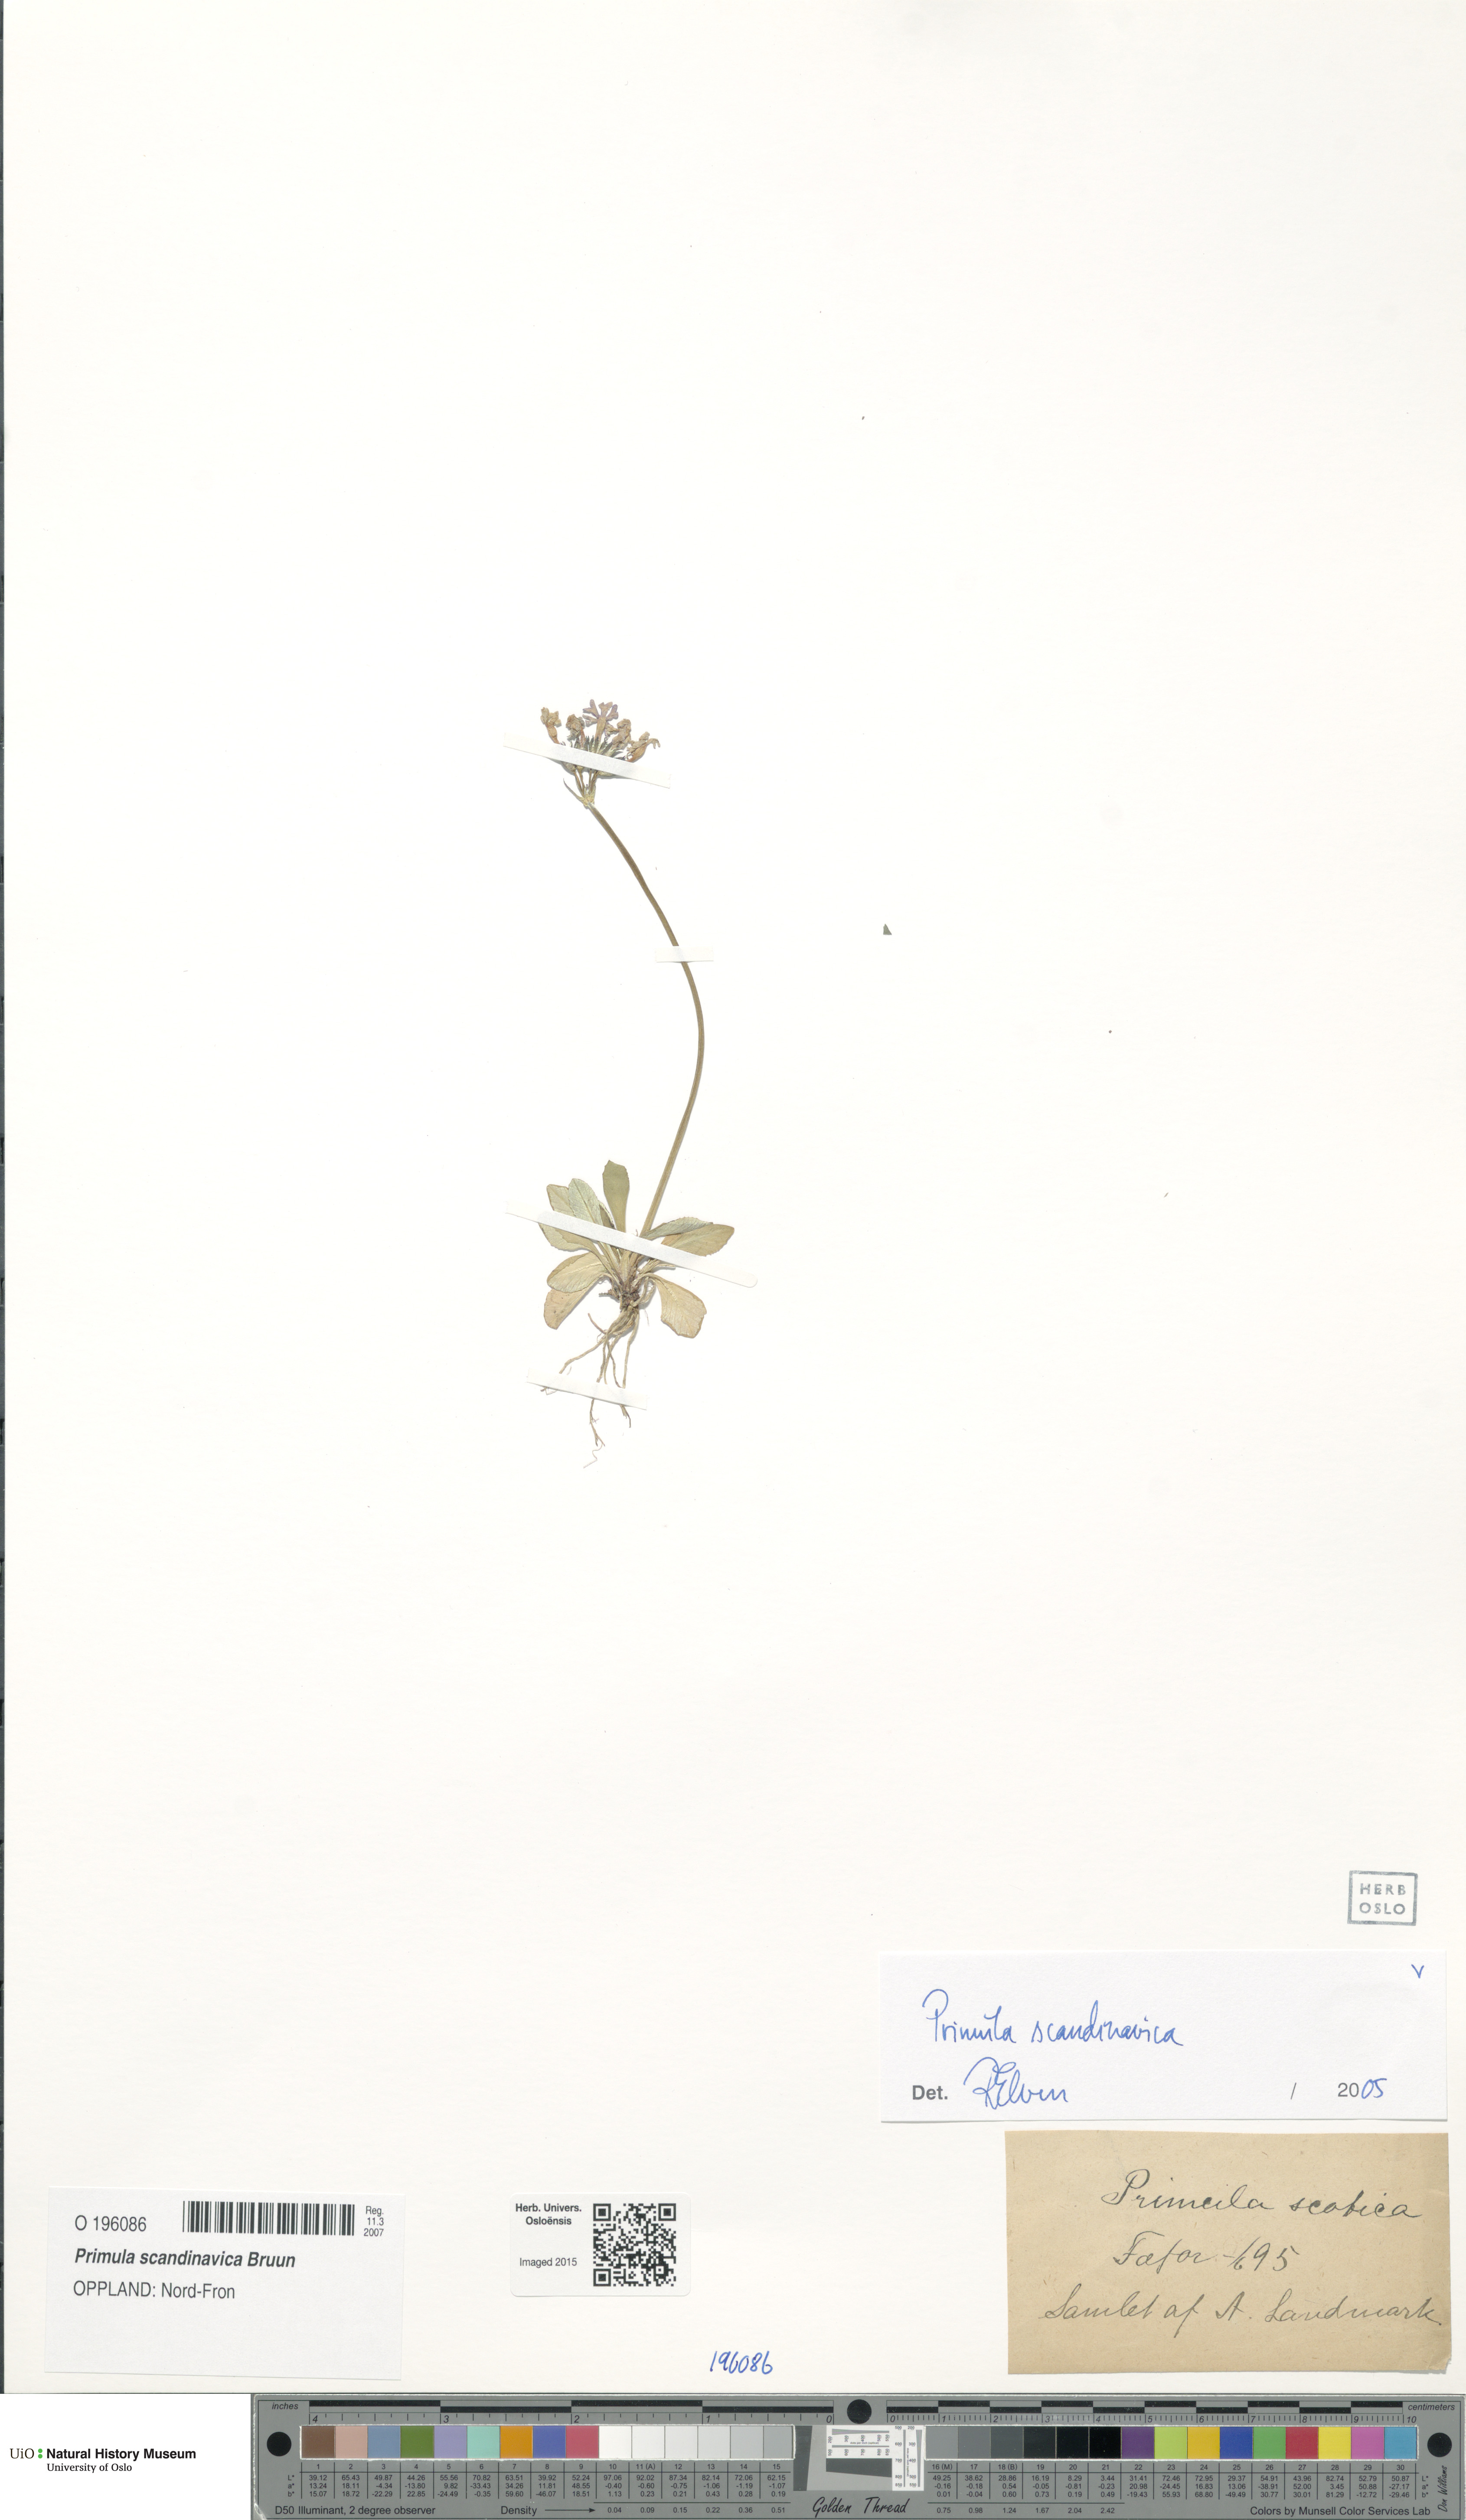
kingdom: Plantae
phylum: Tracheophyta
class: Magnoliopsida
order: Ericales
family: Primulaceae
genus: Primula
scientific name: Primula scandinavica
